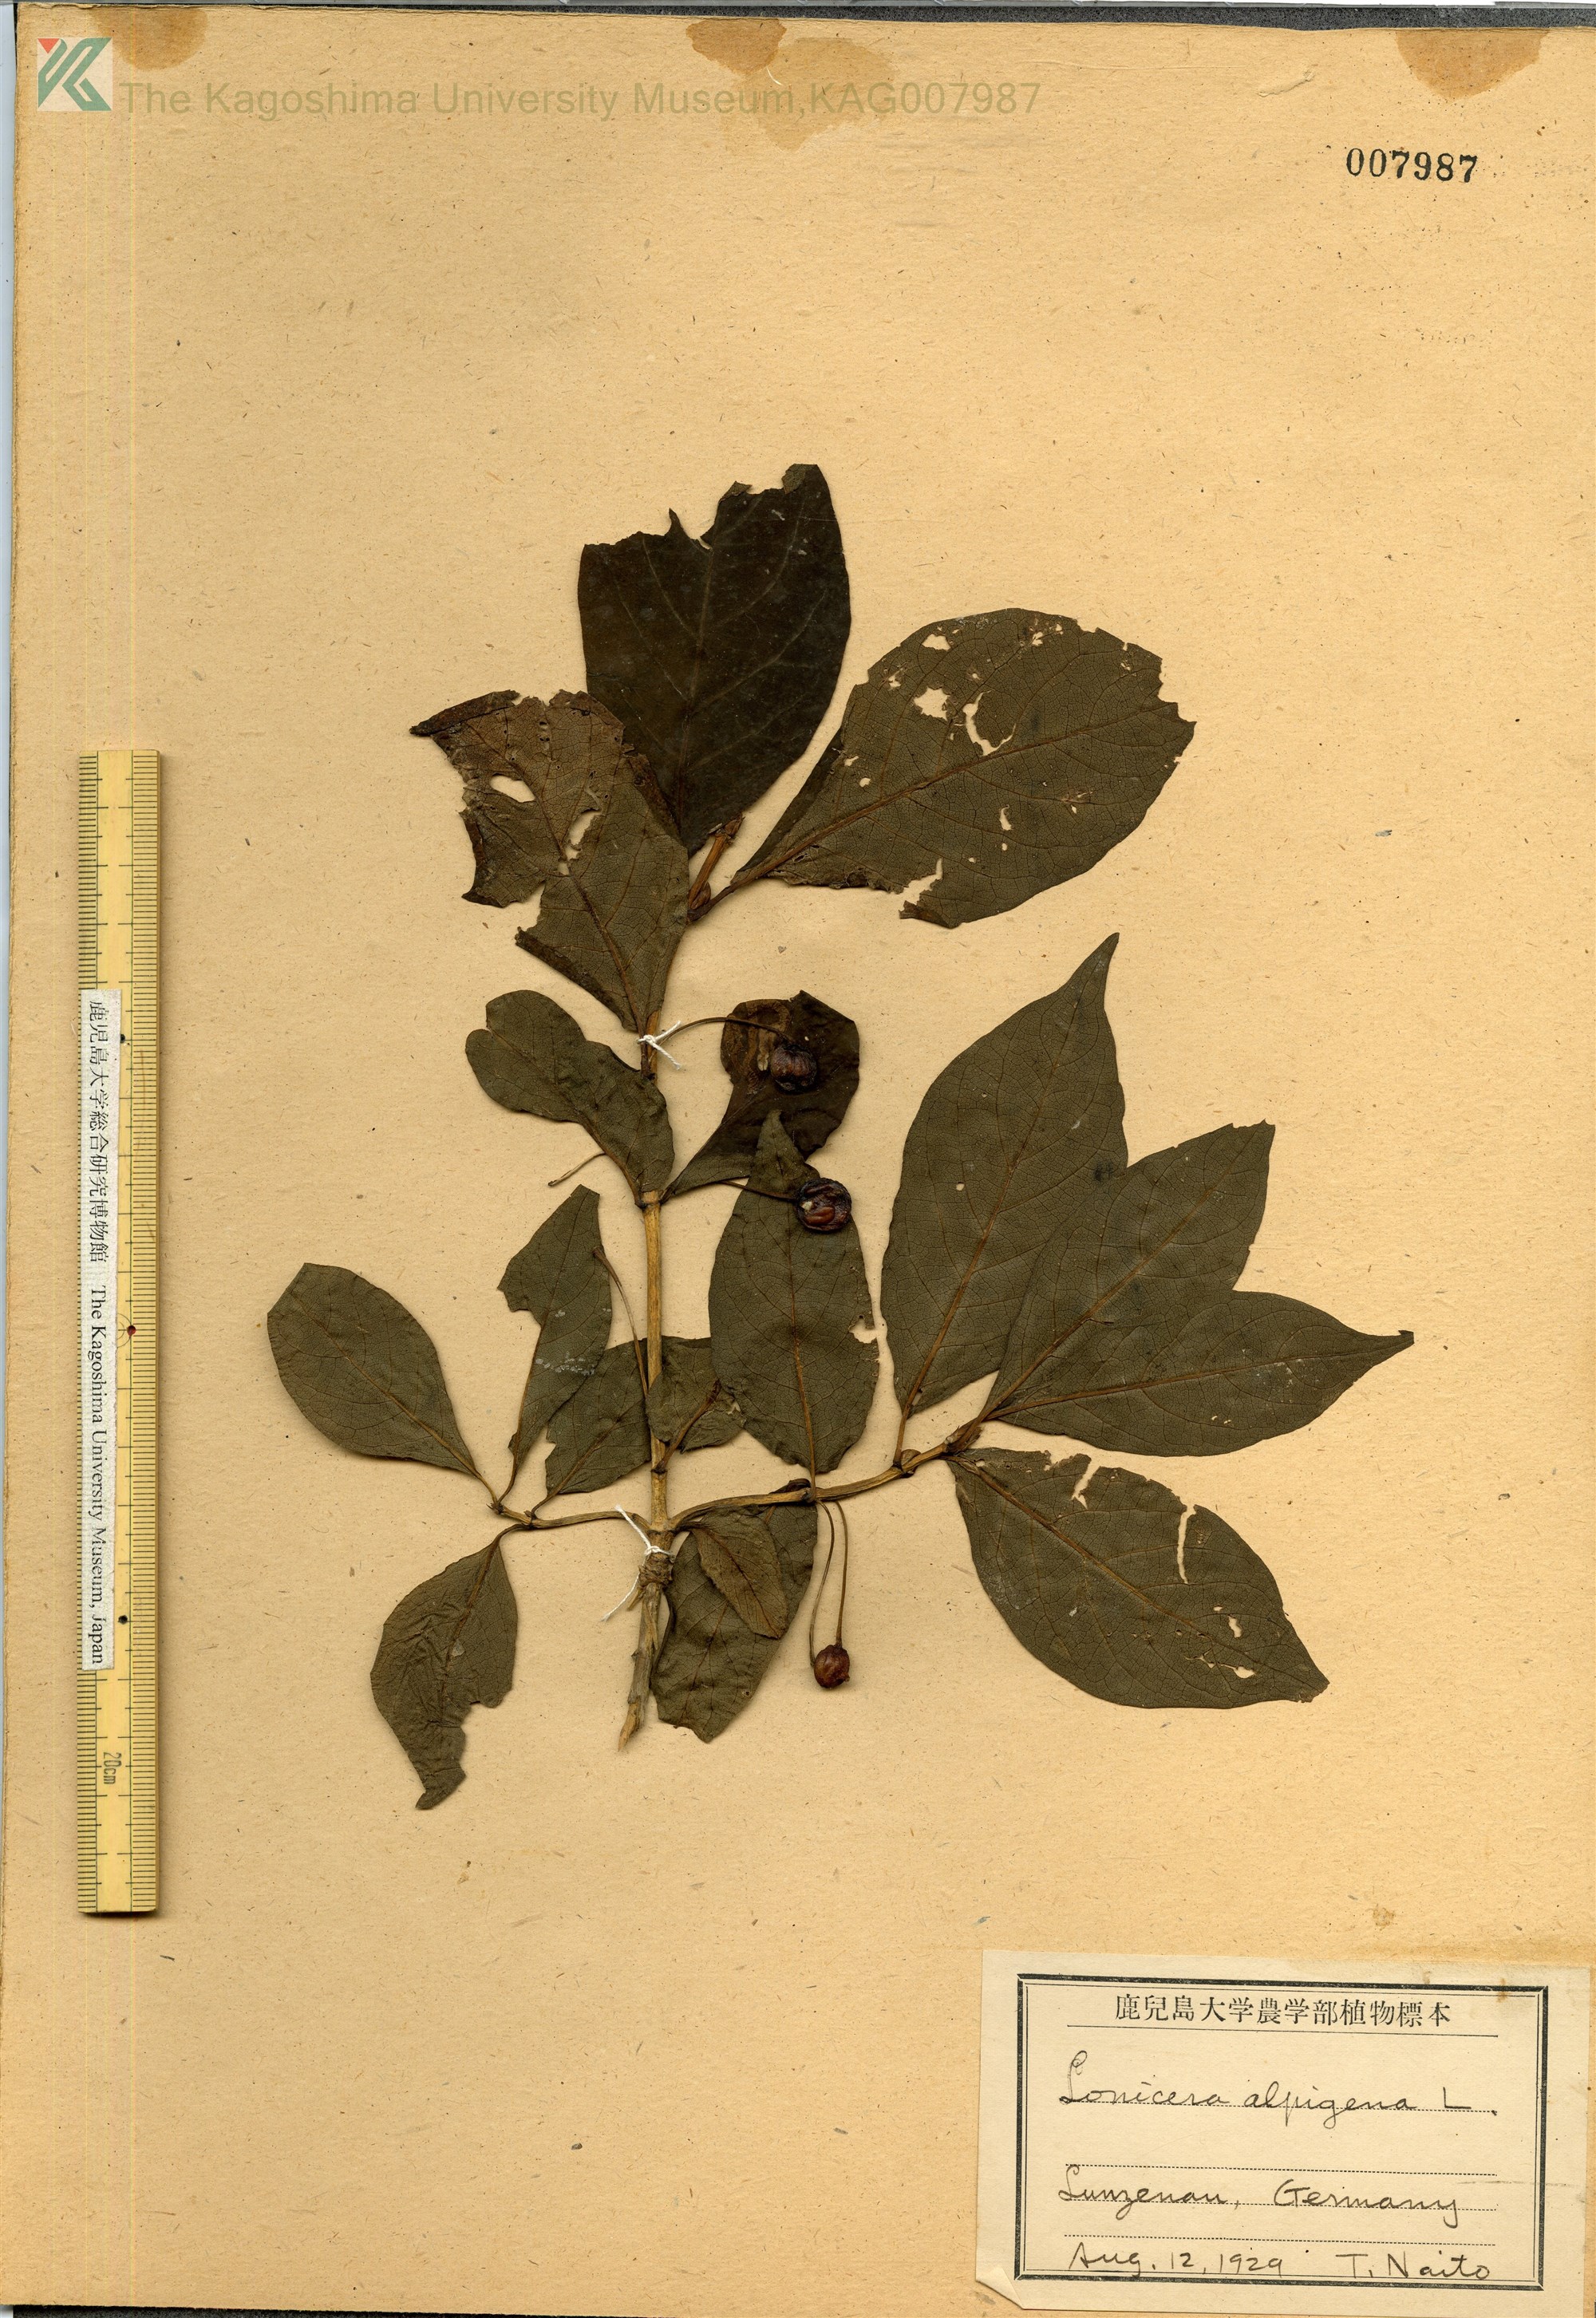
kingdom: Plantae
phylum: Tracheophyta
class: Magnoliopsida
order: Dipsacales
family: Caprifoliaceae
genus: Lonicera
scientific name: Lonicera alpigena
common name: Alpine honeysuckle
